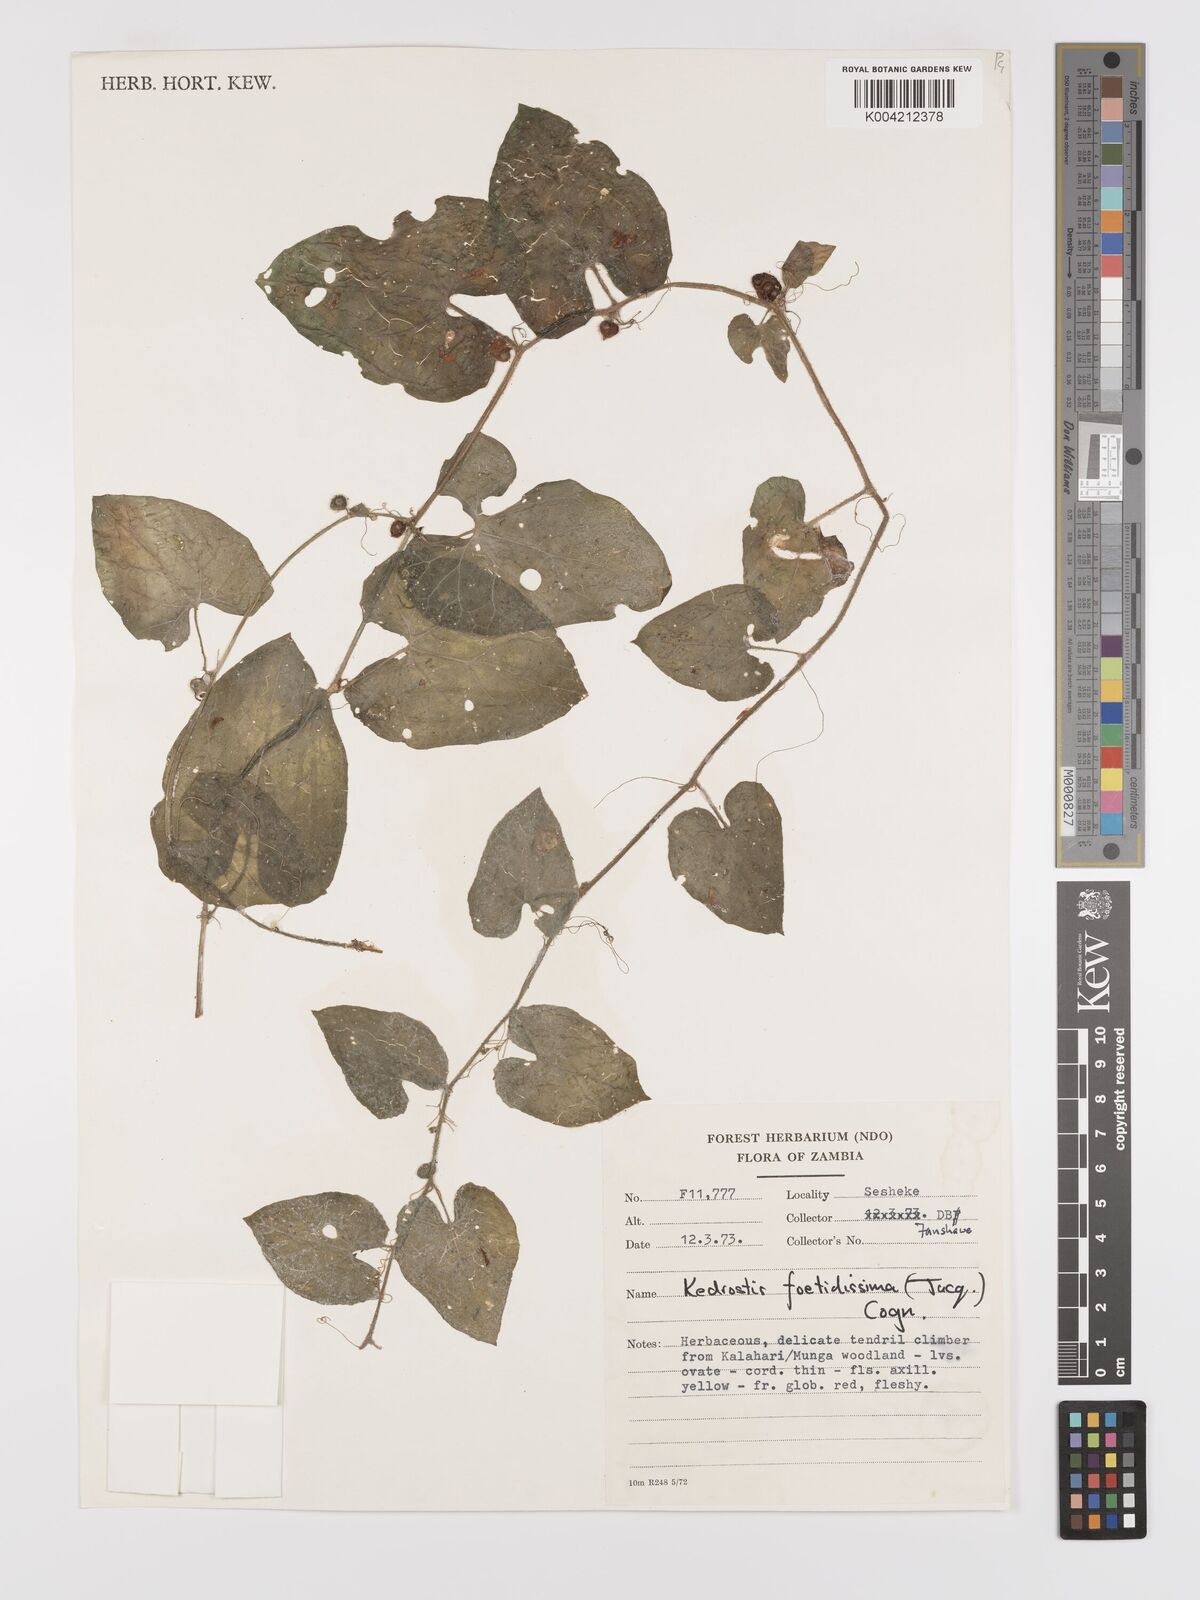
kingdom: Plantae
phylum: Tracheophyta
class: Magnoliopsida
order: Cucurbitales
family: Cucurbitaceae
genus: Kedrostis
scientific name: Kedrostis foetidissima
